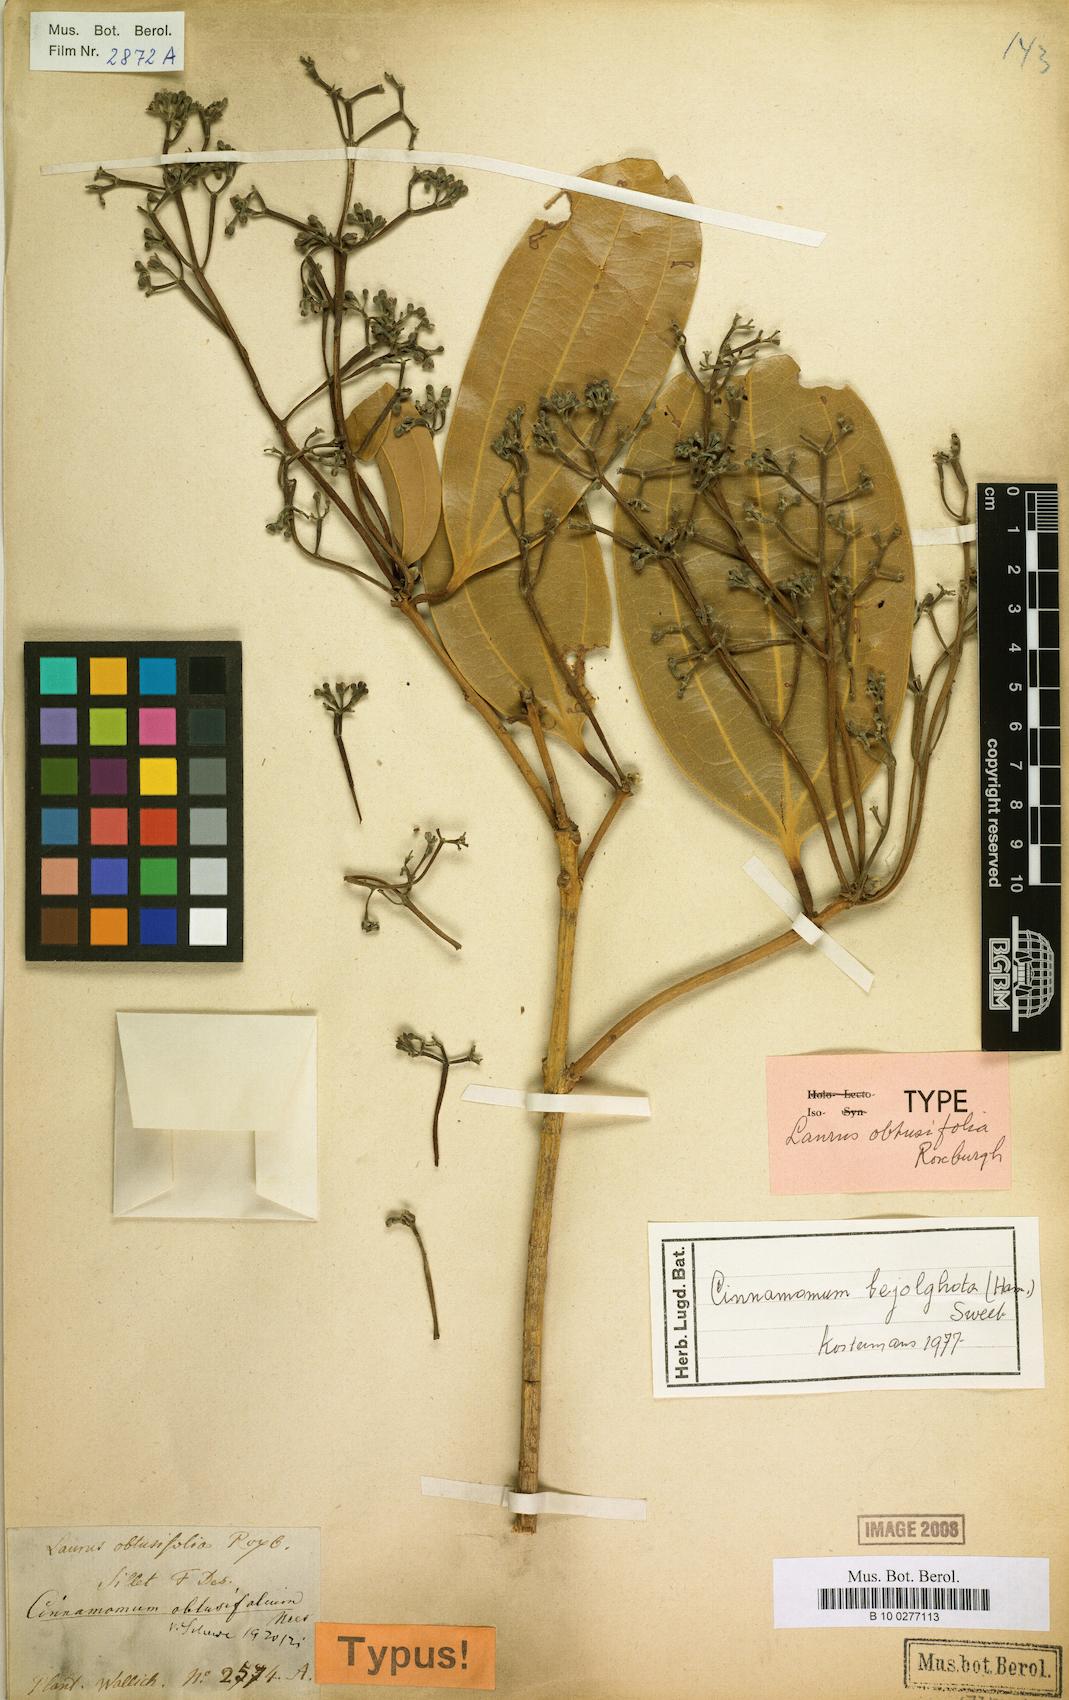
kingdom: Plantae
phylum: Tracheophyta
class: Magnoliopsida
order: Laurales
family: Lauraceae
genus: Cinnamomum
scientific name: Cinnamomum bejolghota
